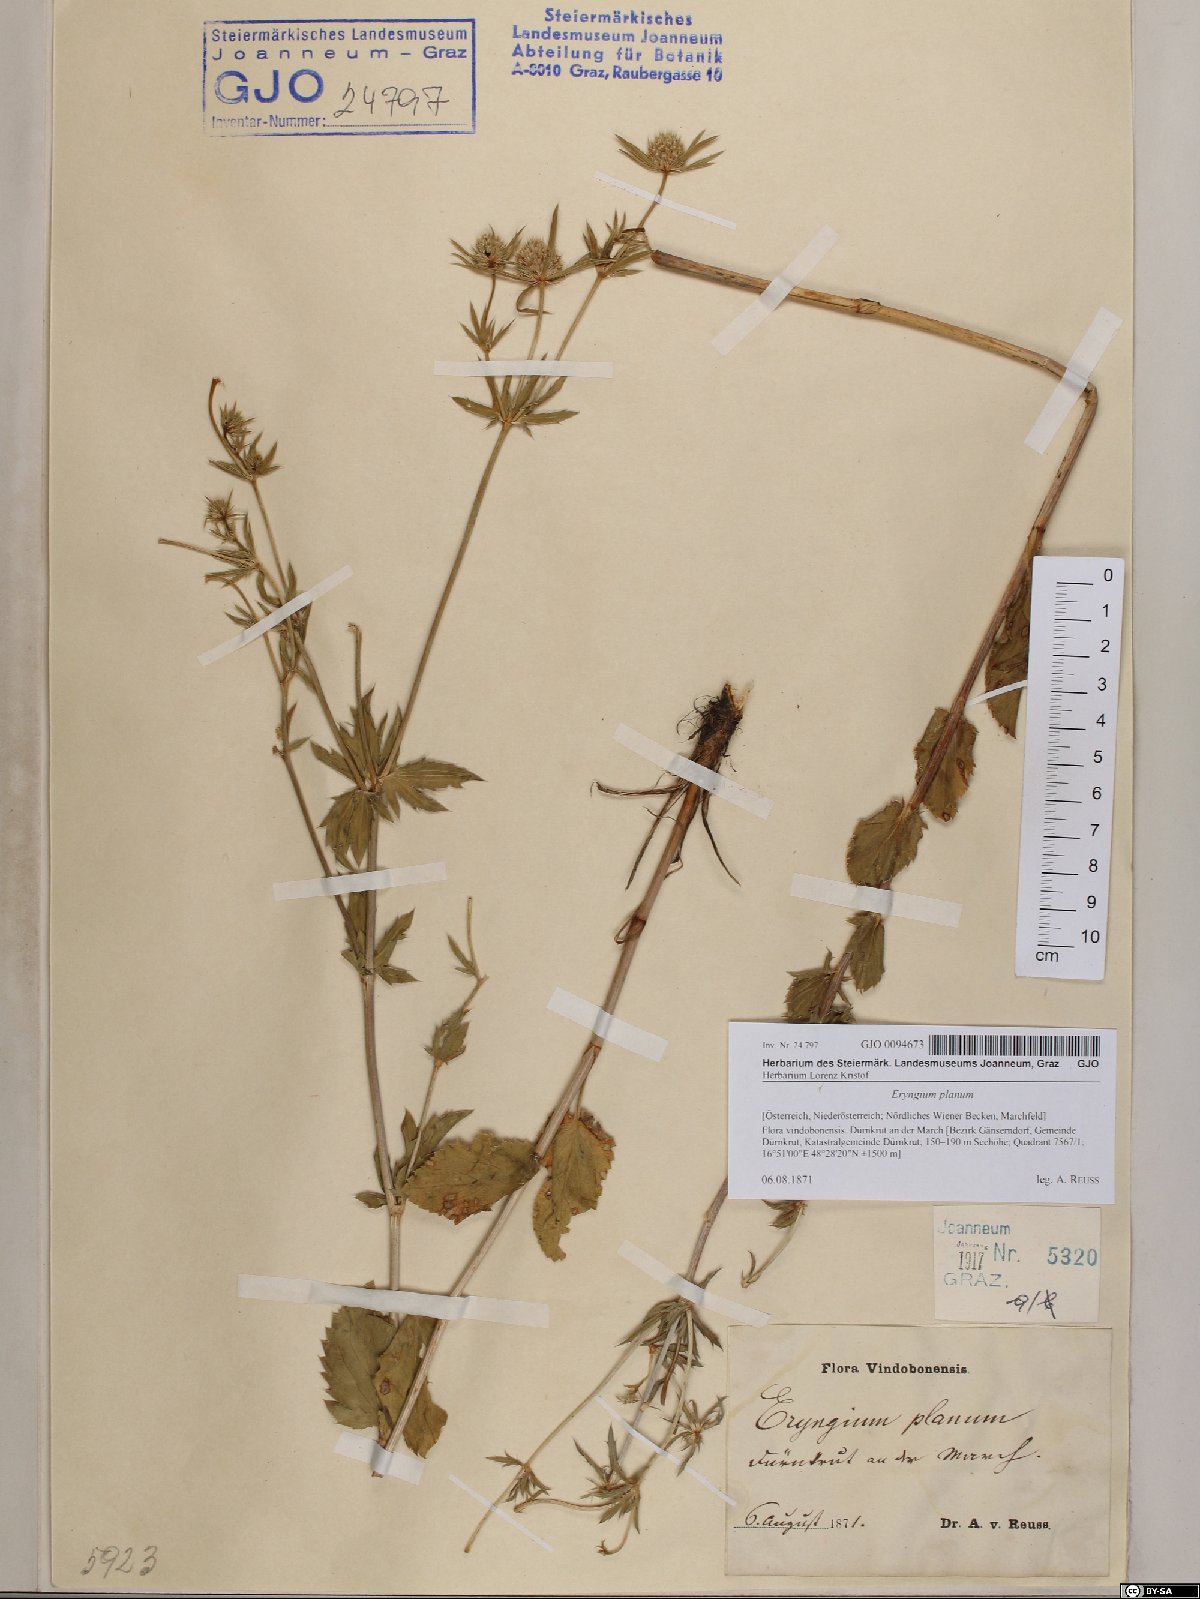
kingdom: Plantae
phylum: Tracheophyta
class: Magnoliopsida
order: Apiales
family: Apiaceae
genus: Eryngium
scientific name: Eryngium planum
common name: Blue eryngo
